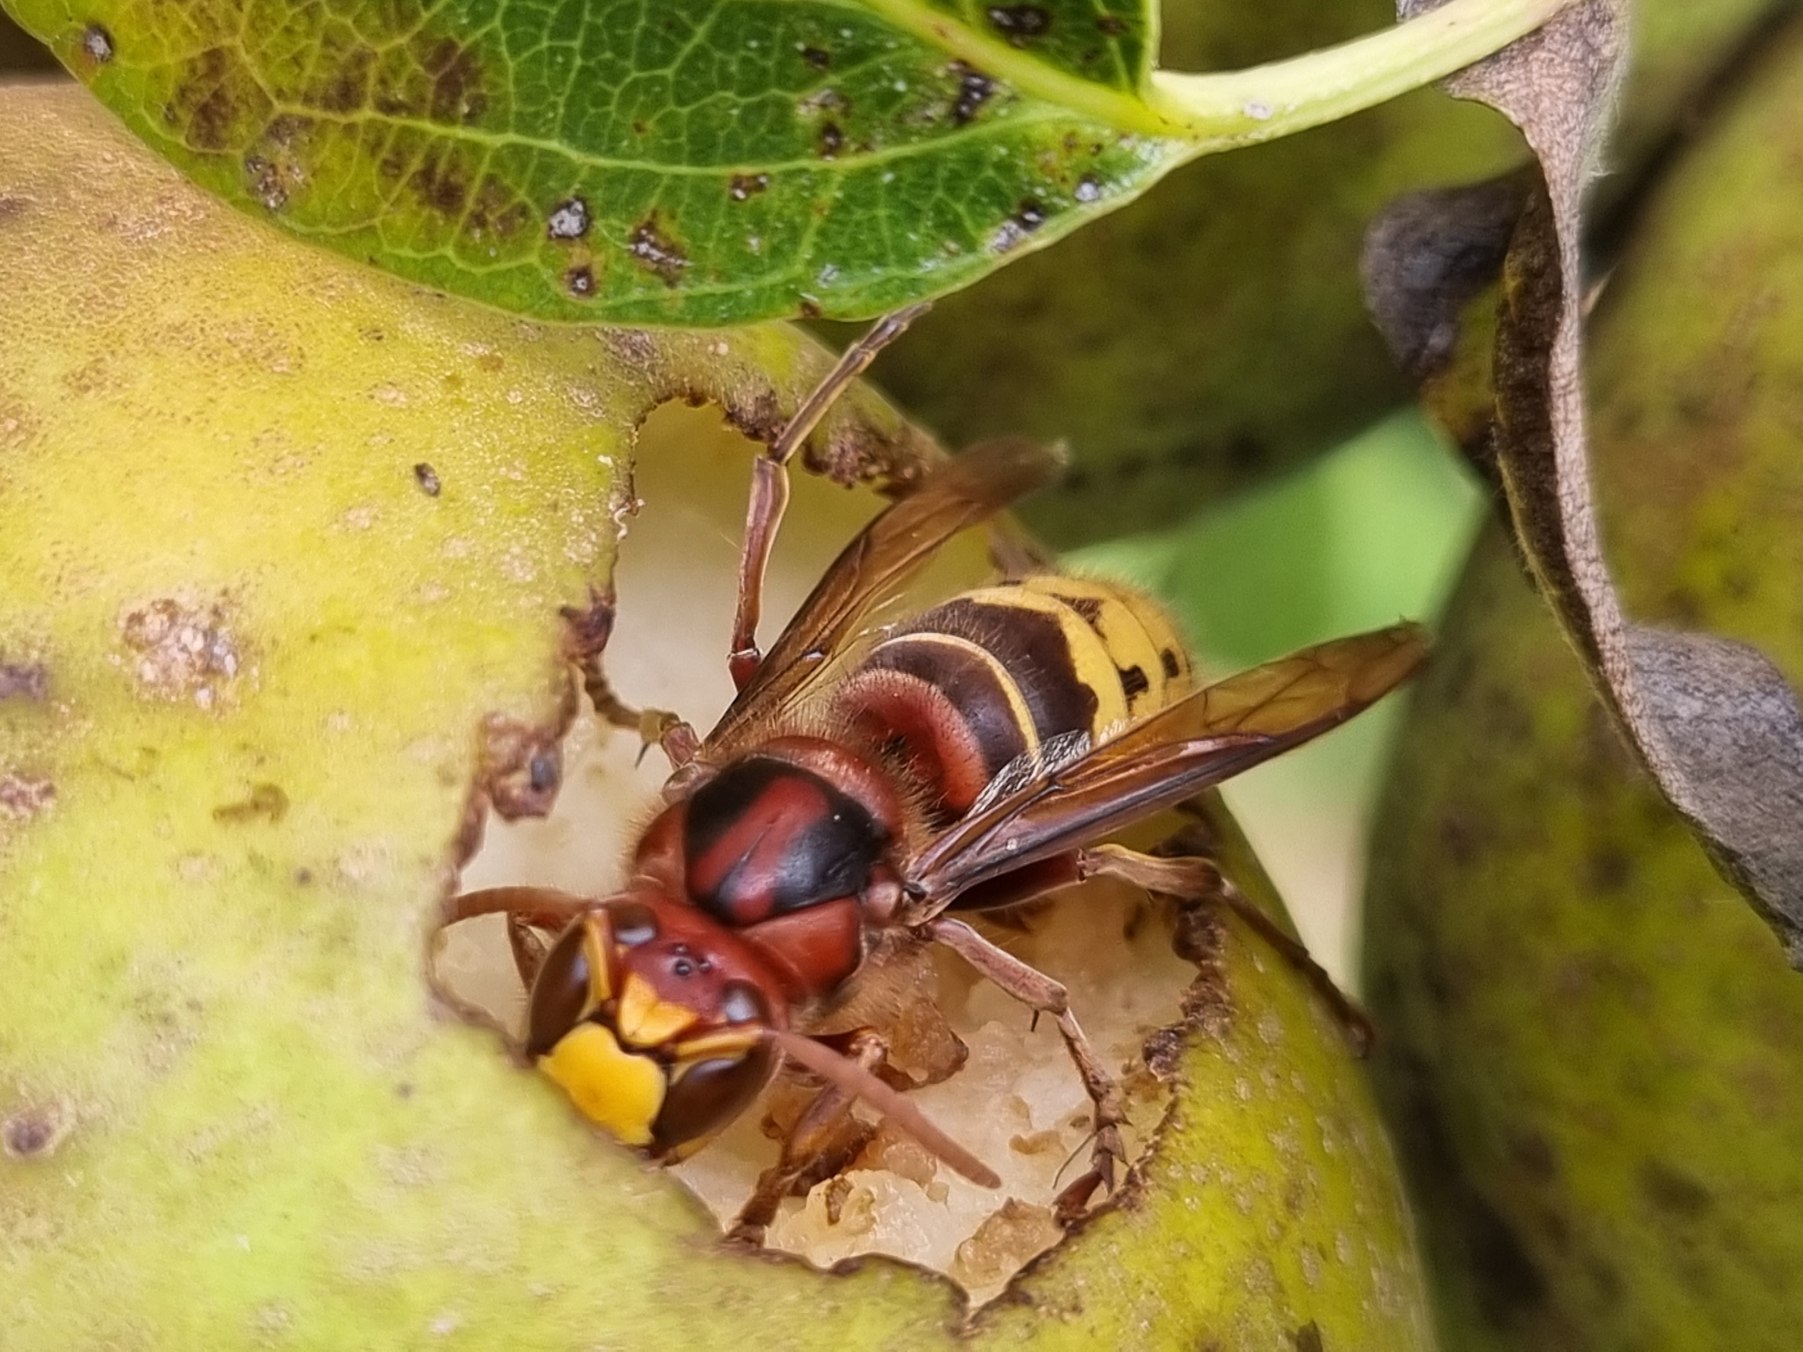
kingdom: Animalia
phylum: Arthropoda
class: Insecta
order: Hymenoptera
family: Vespidae
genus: Vespa
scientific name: Vespa crabro
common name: Stor gedehams
